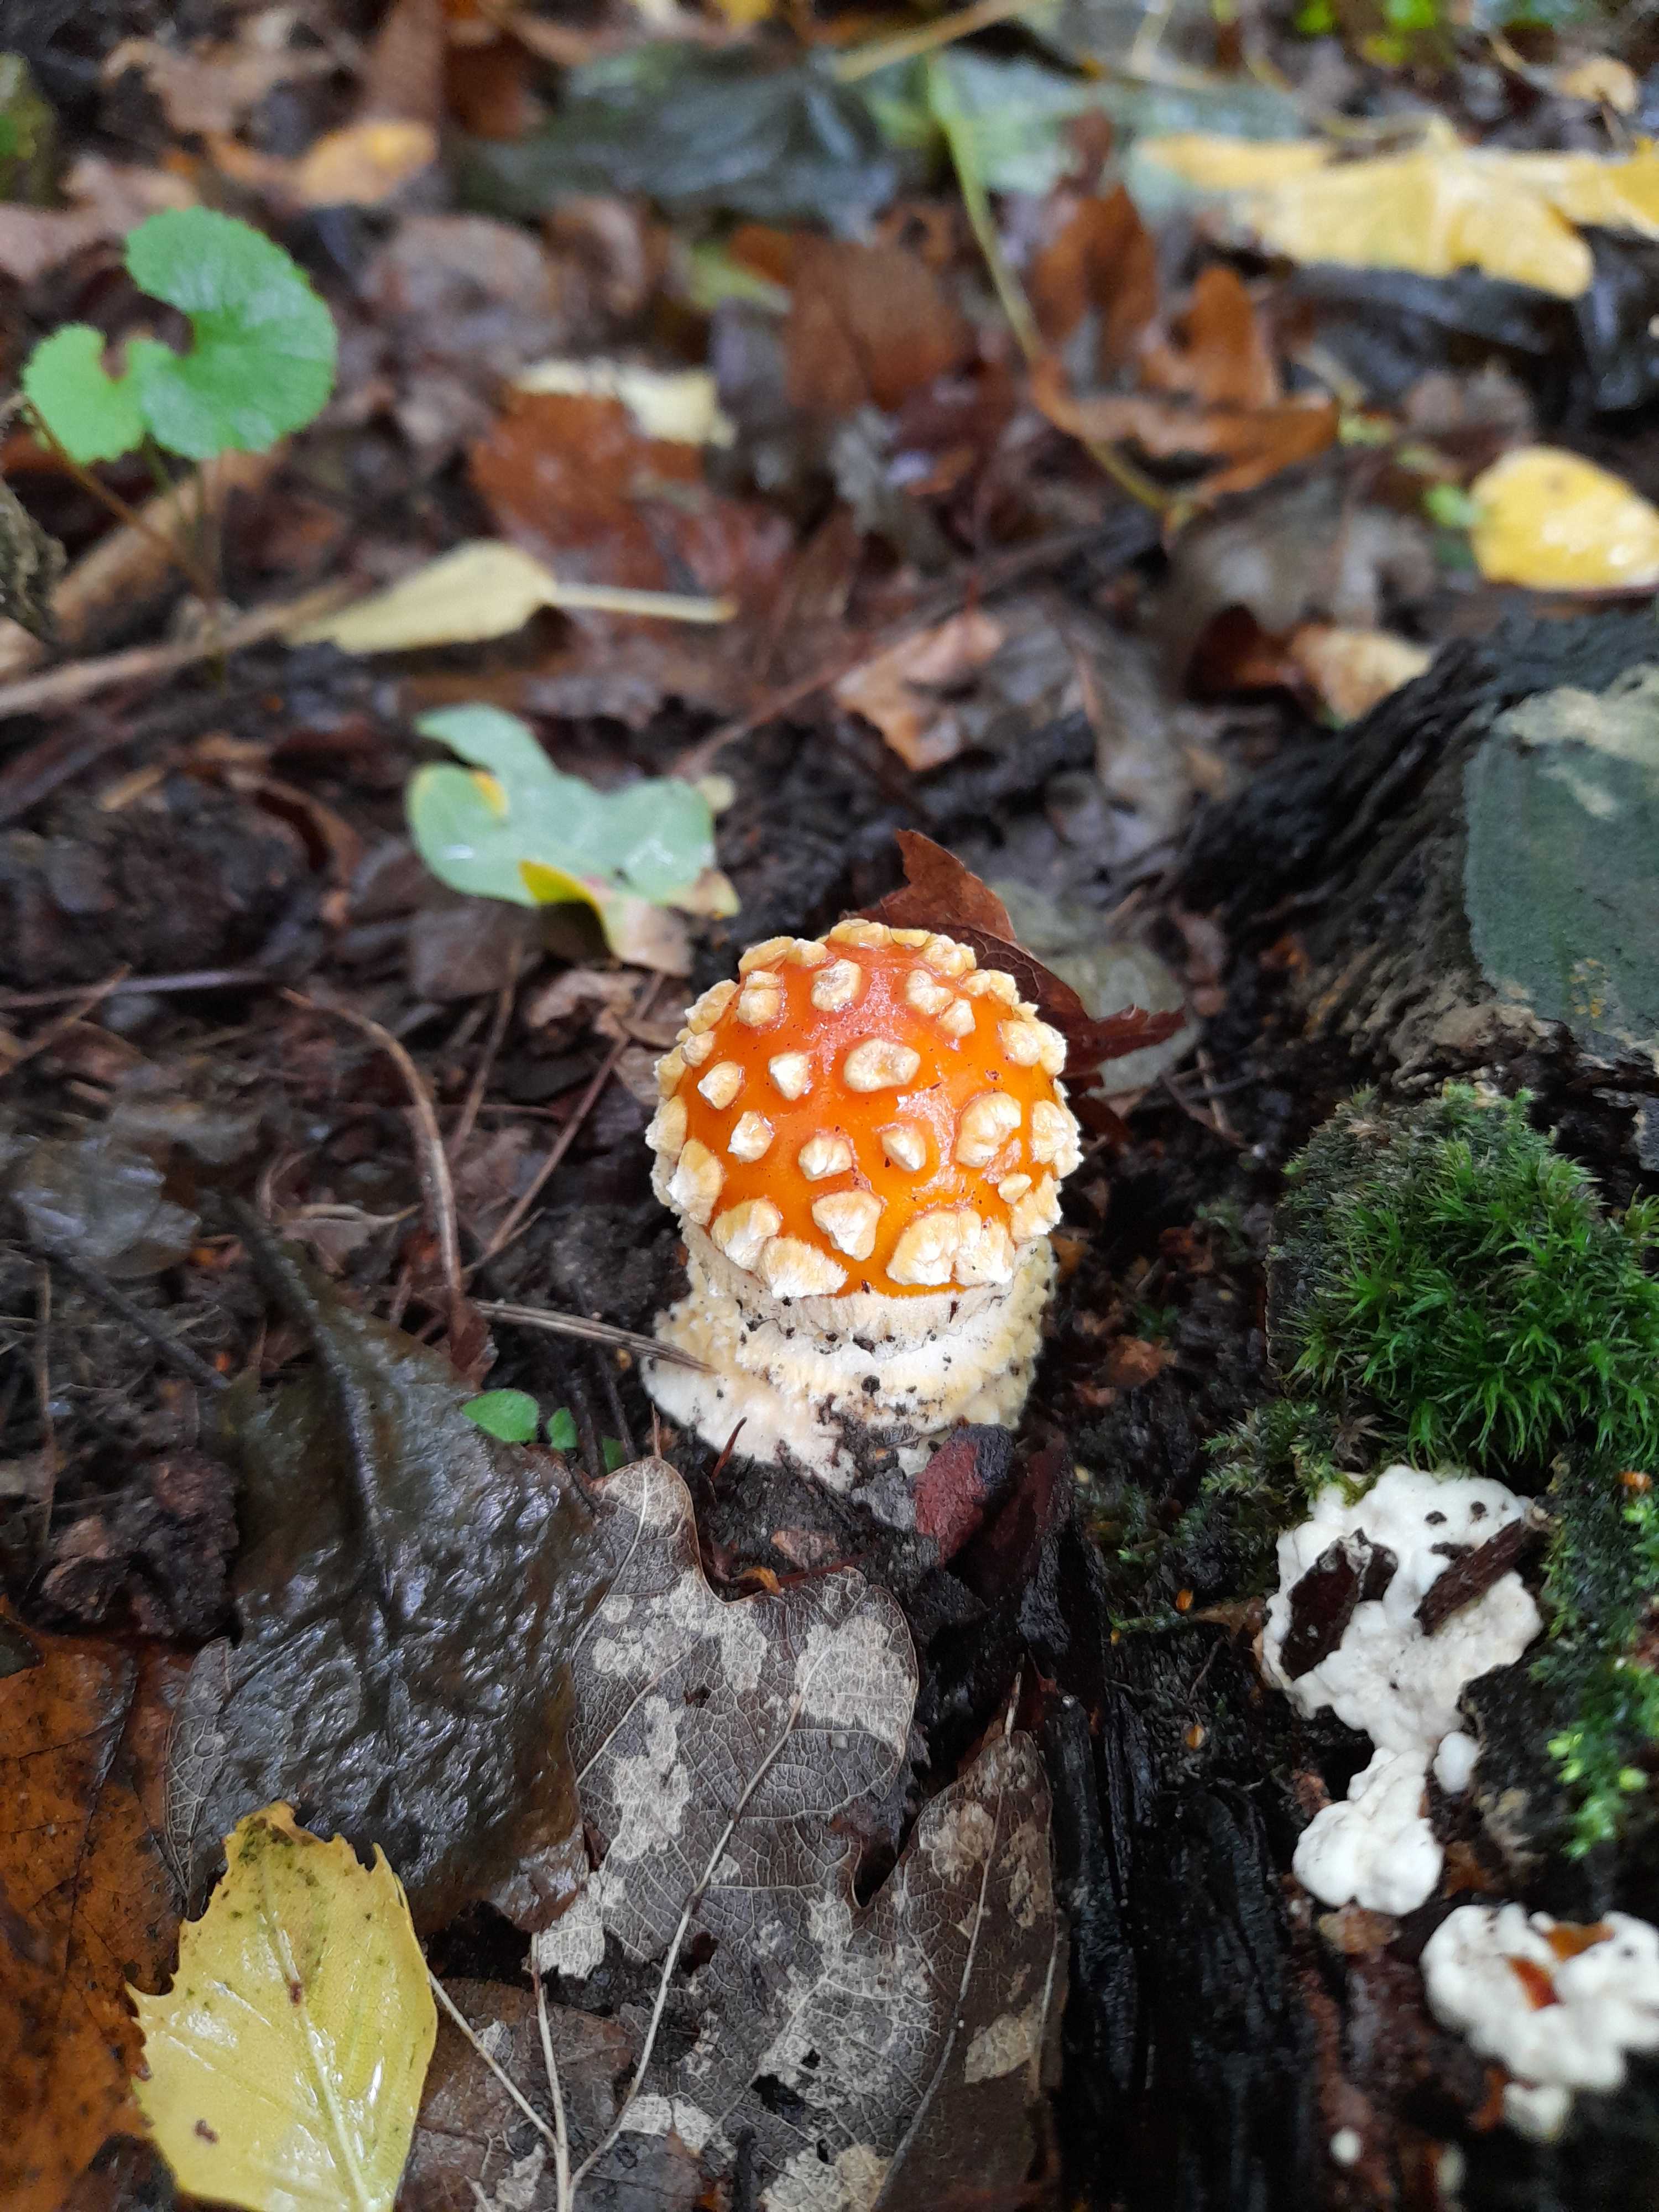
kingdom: Fungi
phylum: Basidiomycota
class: Agaricomycetes
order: Agaricales
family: Amanitaceae
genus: Amanita
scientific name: Amanita muscaria
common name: rød fluesvamp
